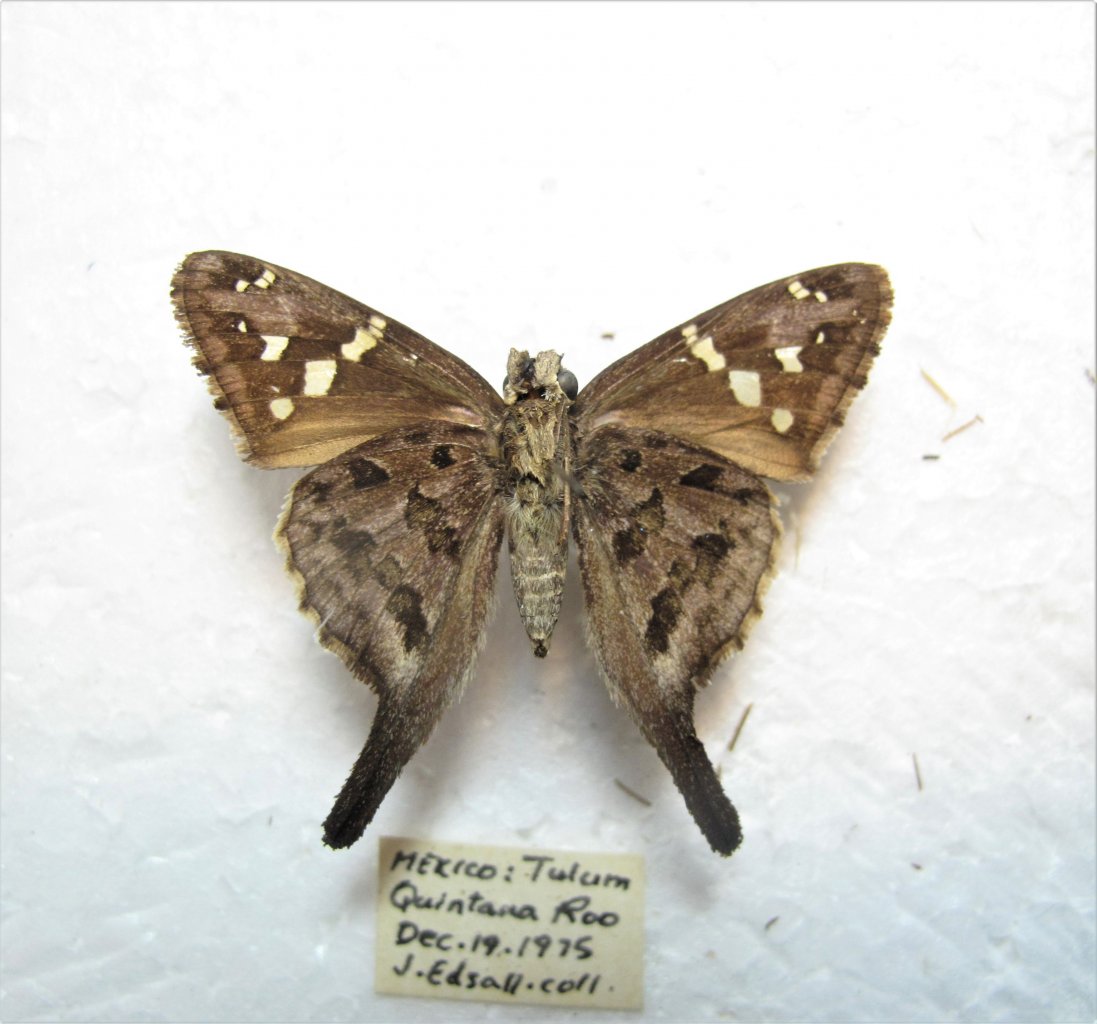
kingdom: Animalia
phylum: Arthropoda
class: Insecta
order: Lepidoptera
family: Hesperiidae
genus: Urbanus
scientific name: Urbanus dorantes
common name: Dorantes Longtail
